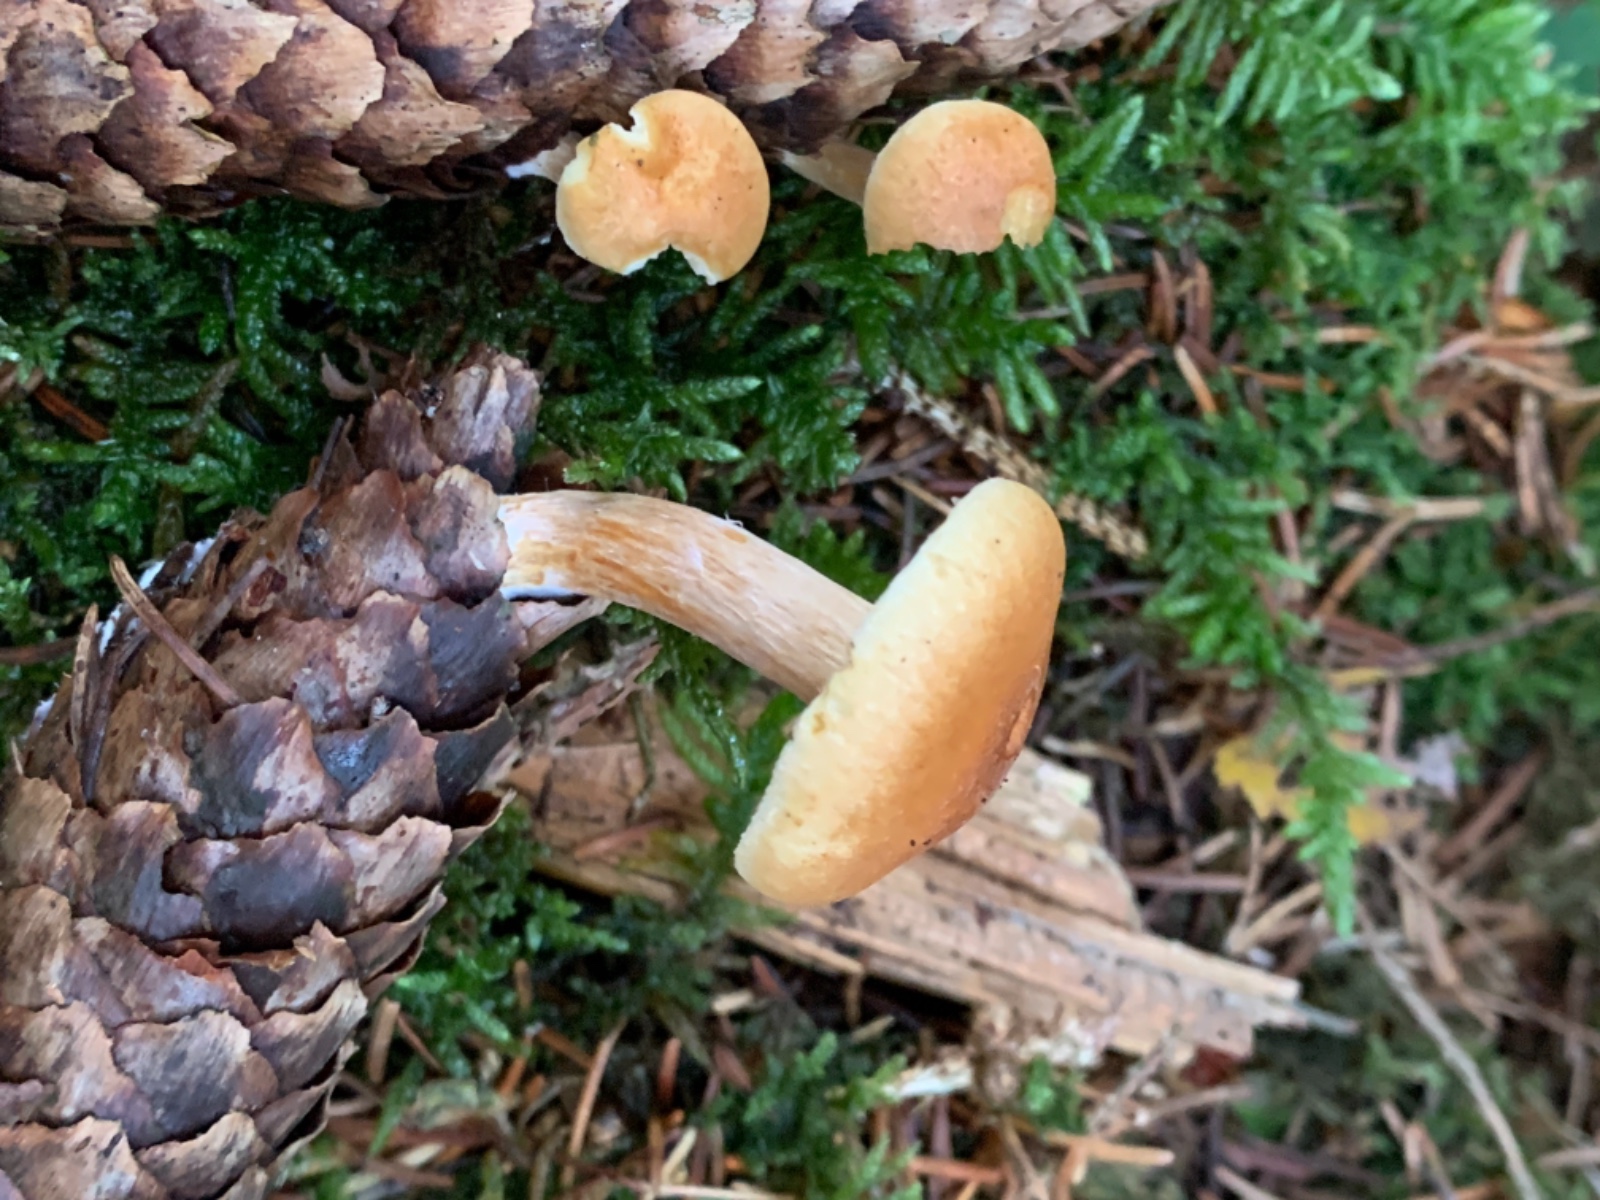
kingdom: Fungi
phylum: Basidiomycota
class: Agaricomycetes
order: Agaricales
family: Physalacriaceae
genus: Strobilurus
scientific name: Strobilurus esculentus
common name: gran-koglehat
